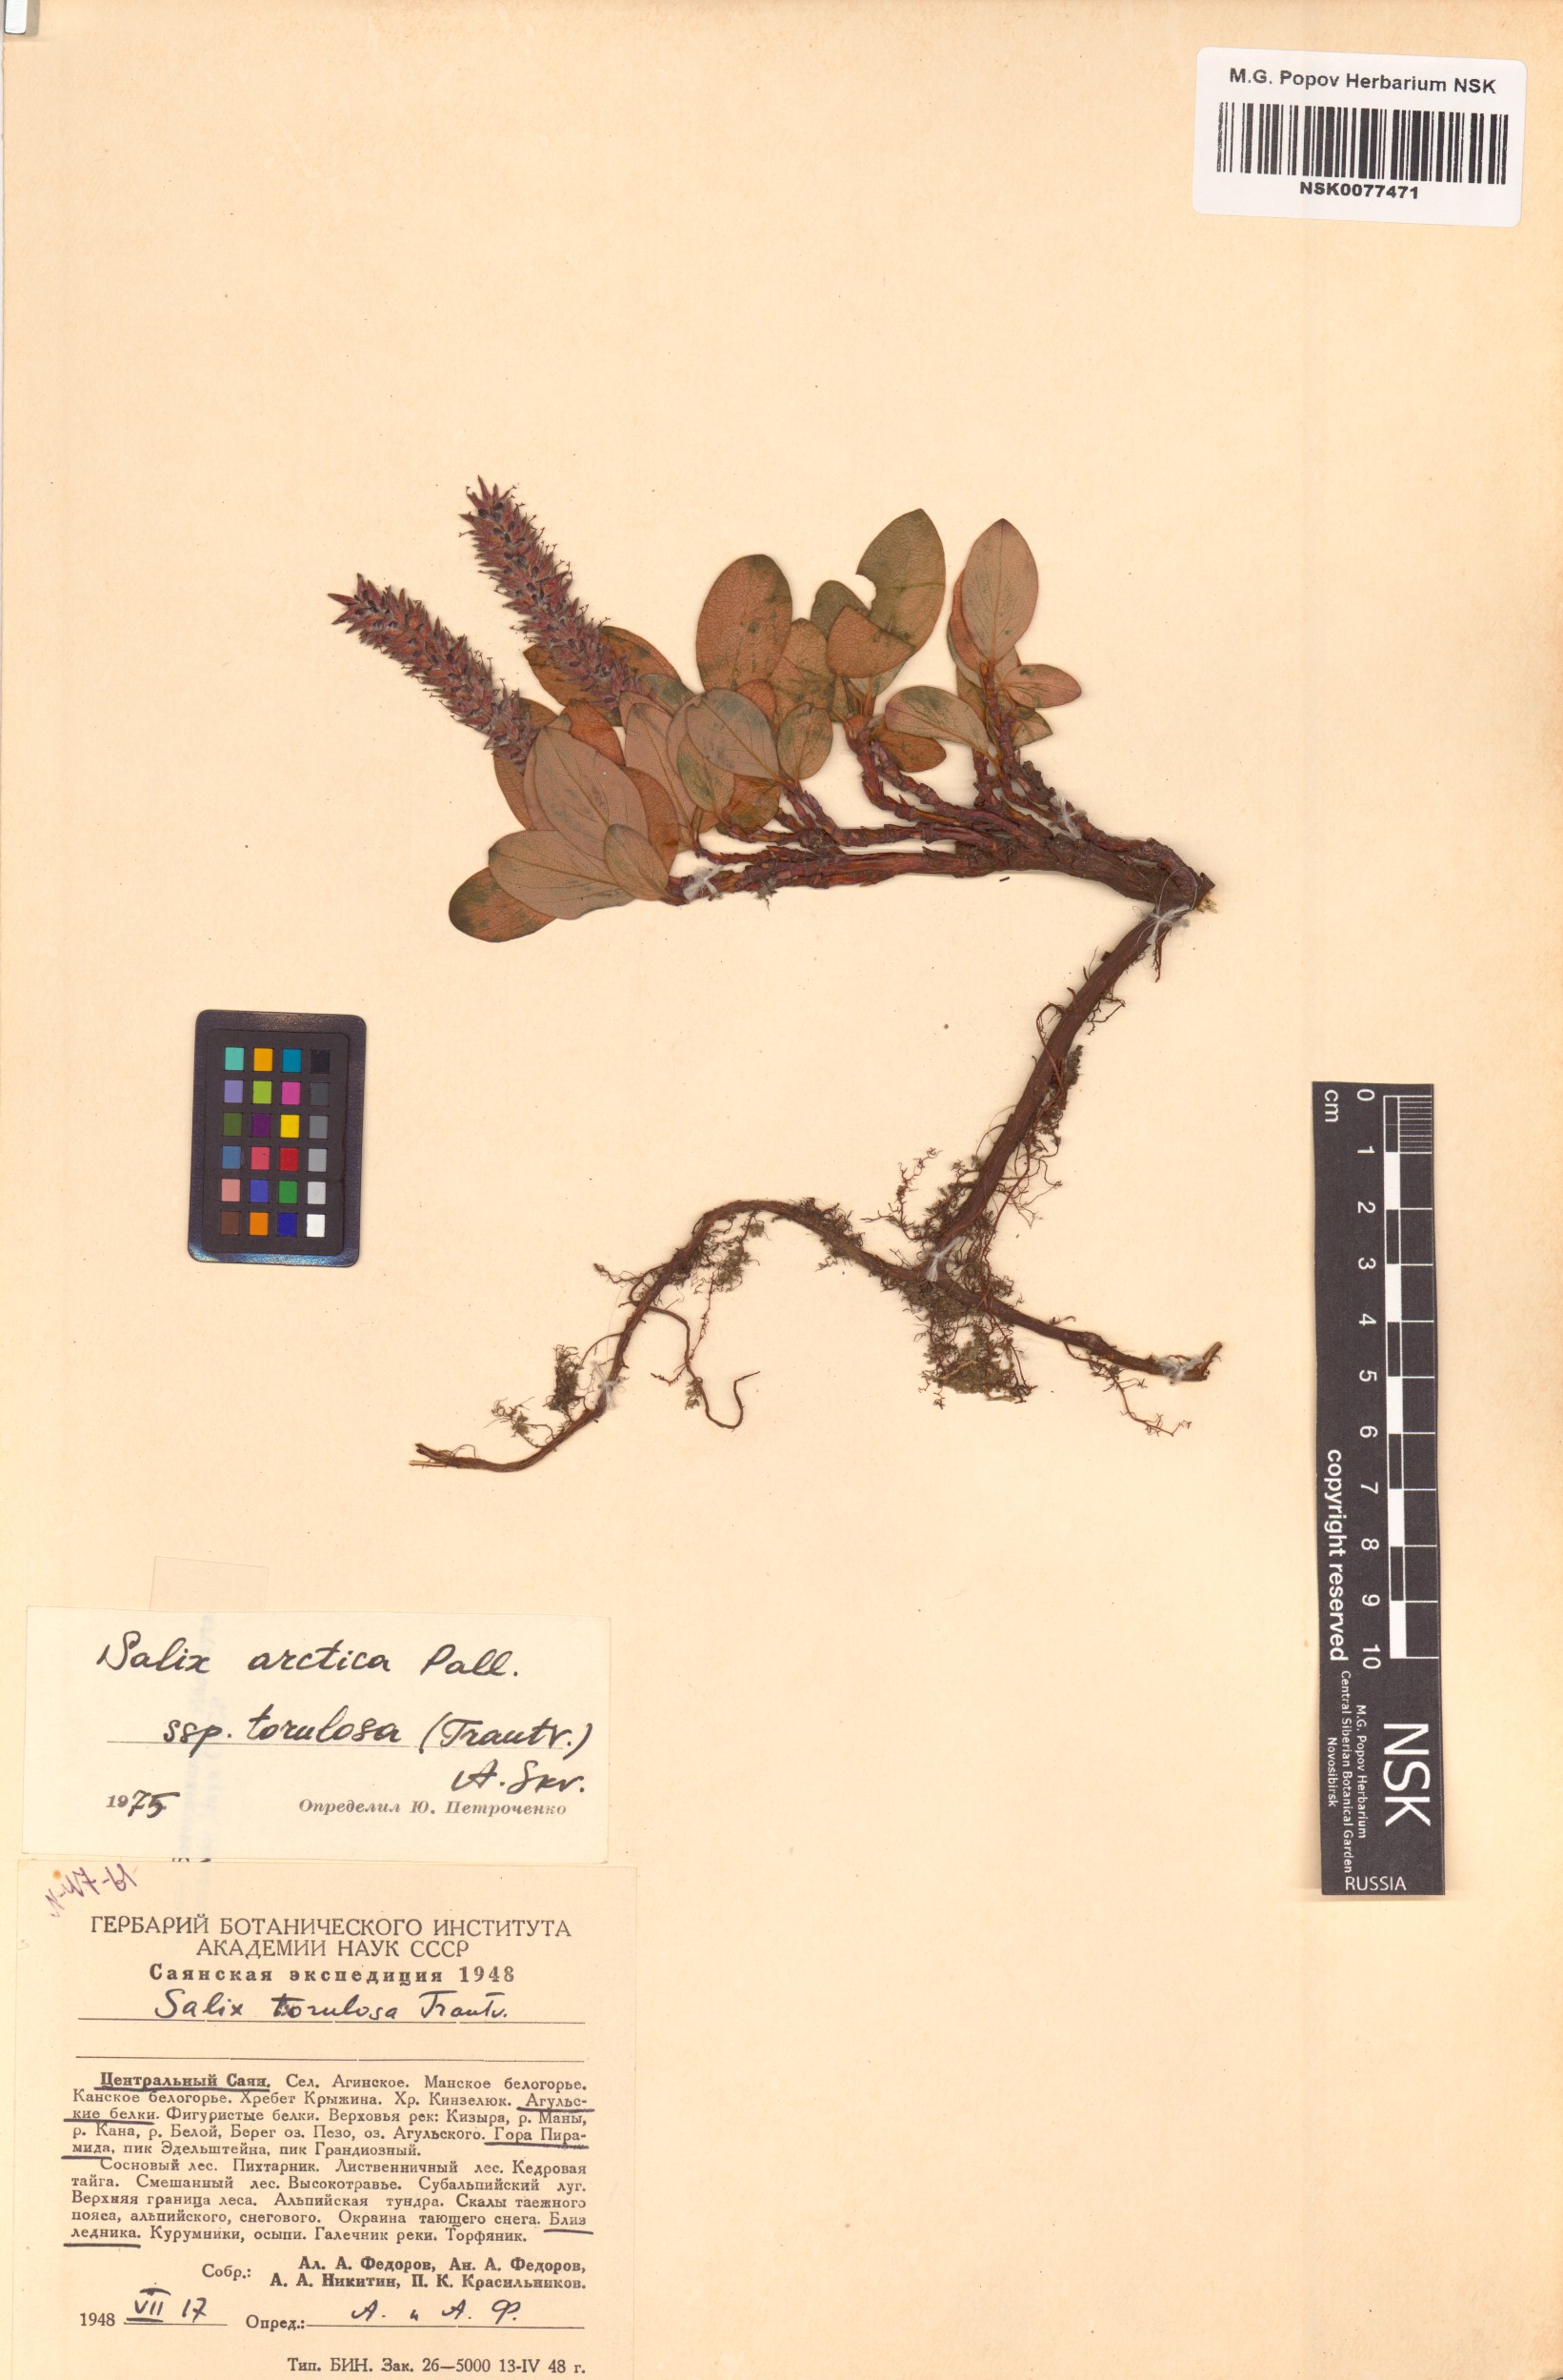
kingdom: Plantae
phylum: Tracheophyta
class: Magnoliopsida
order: Malpighiales
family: Salicaceae
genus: Salix
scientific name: Salix arctica
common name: Arctic willow
